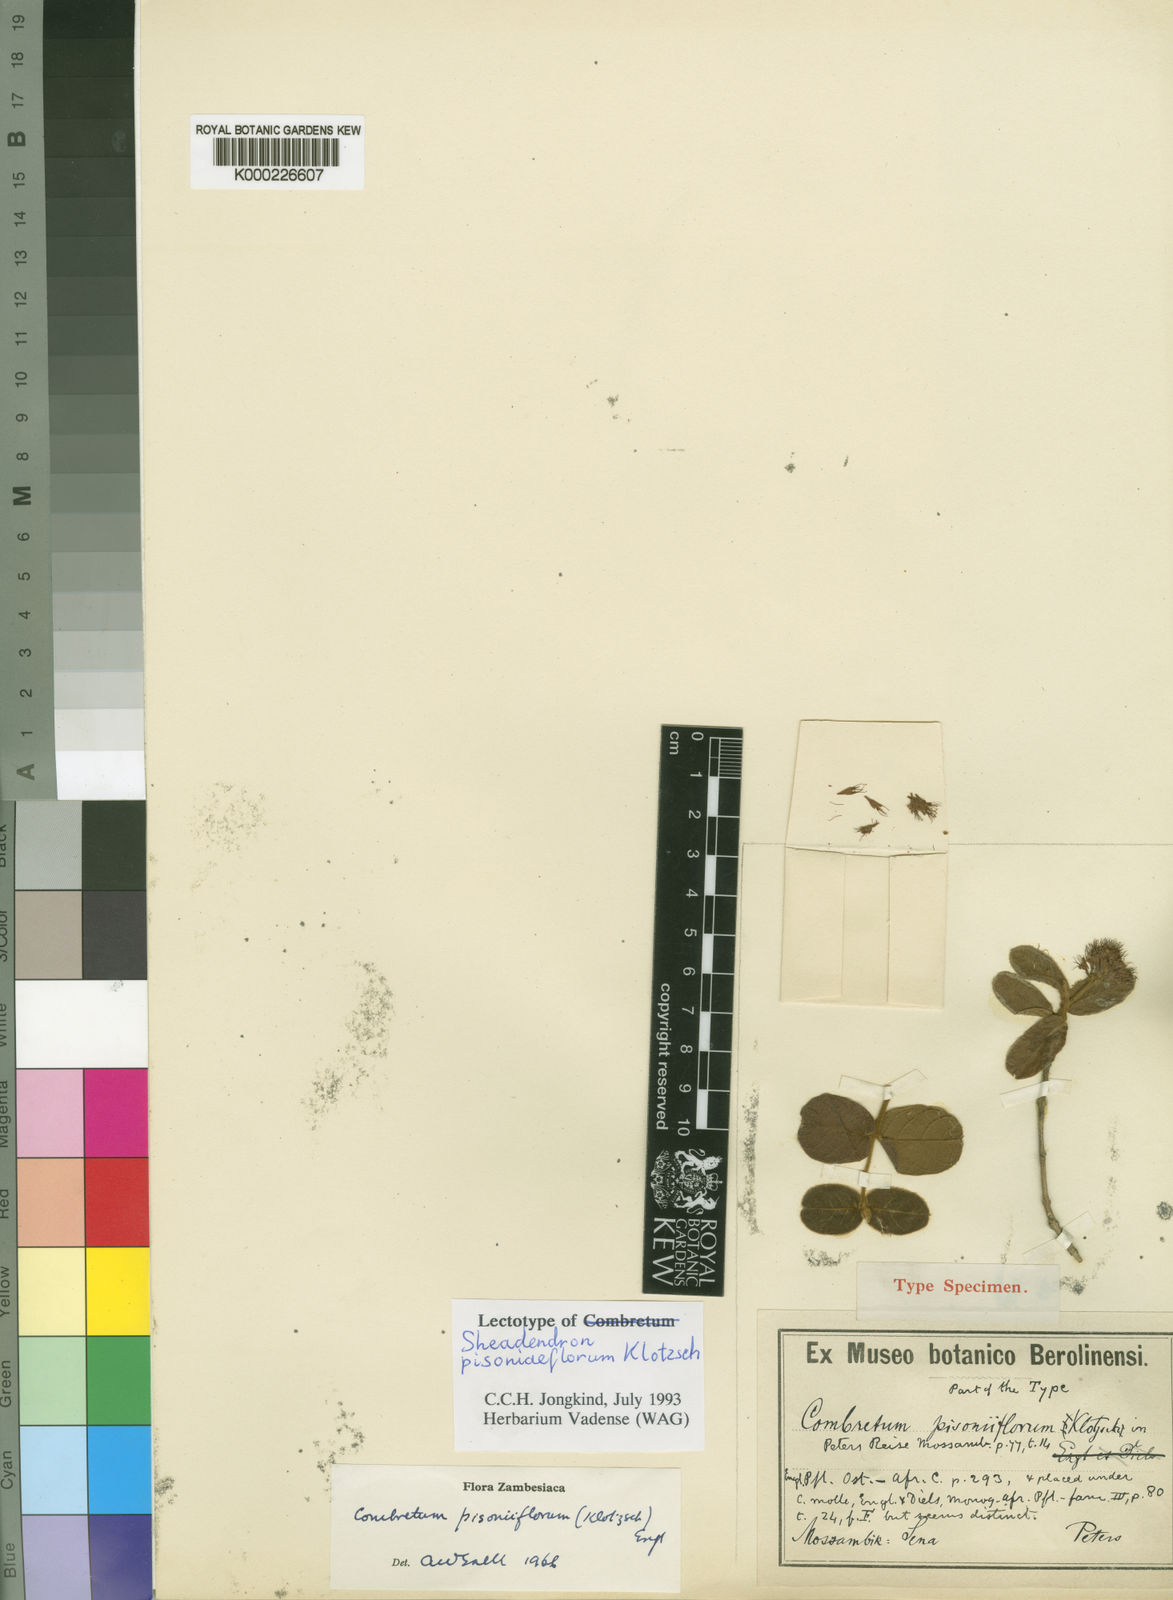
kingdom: Plantae
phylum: Tracheophyta
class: Magnoliopsida
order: Myrtales
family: Combretaceae
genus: Combretum
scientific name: Combretum pisoniiflorum
